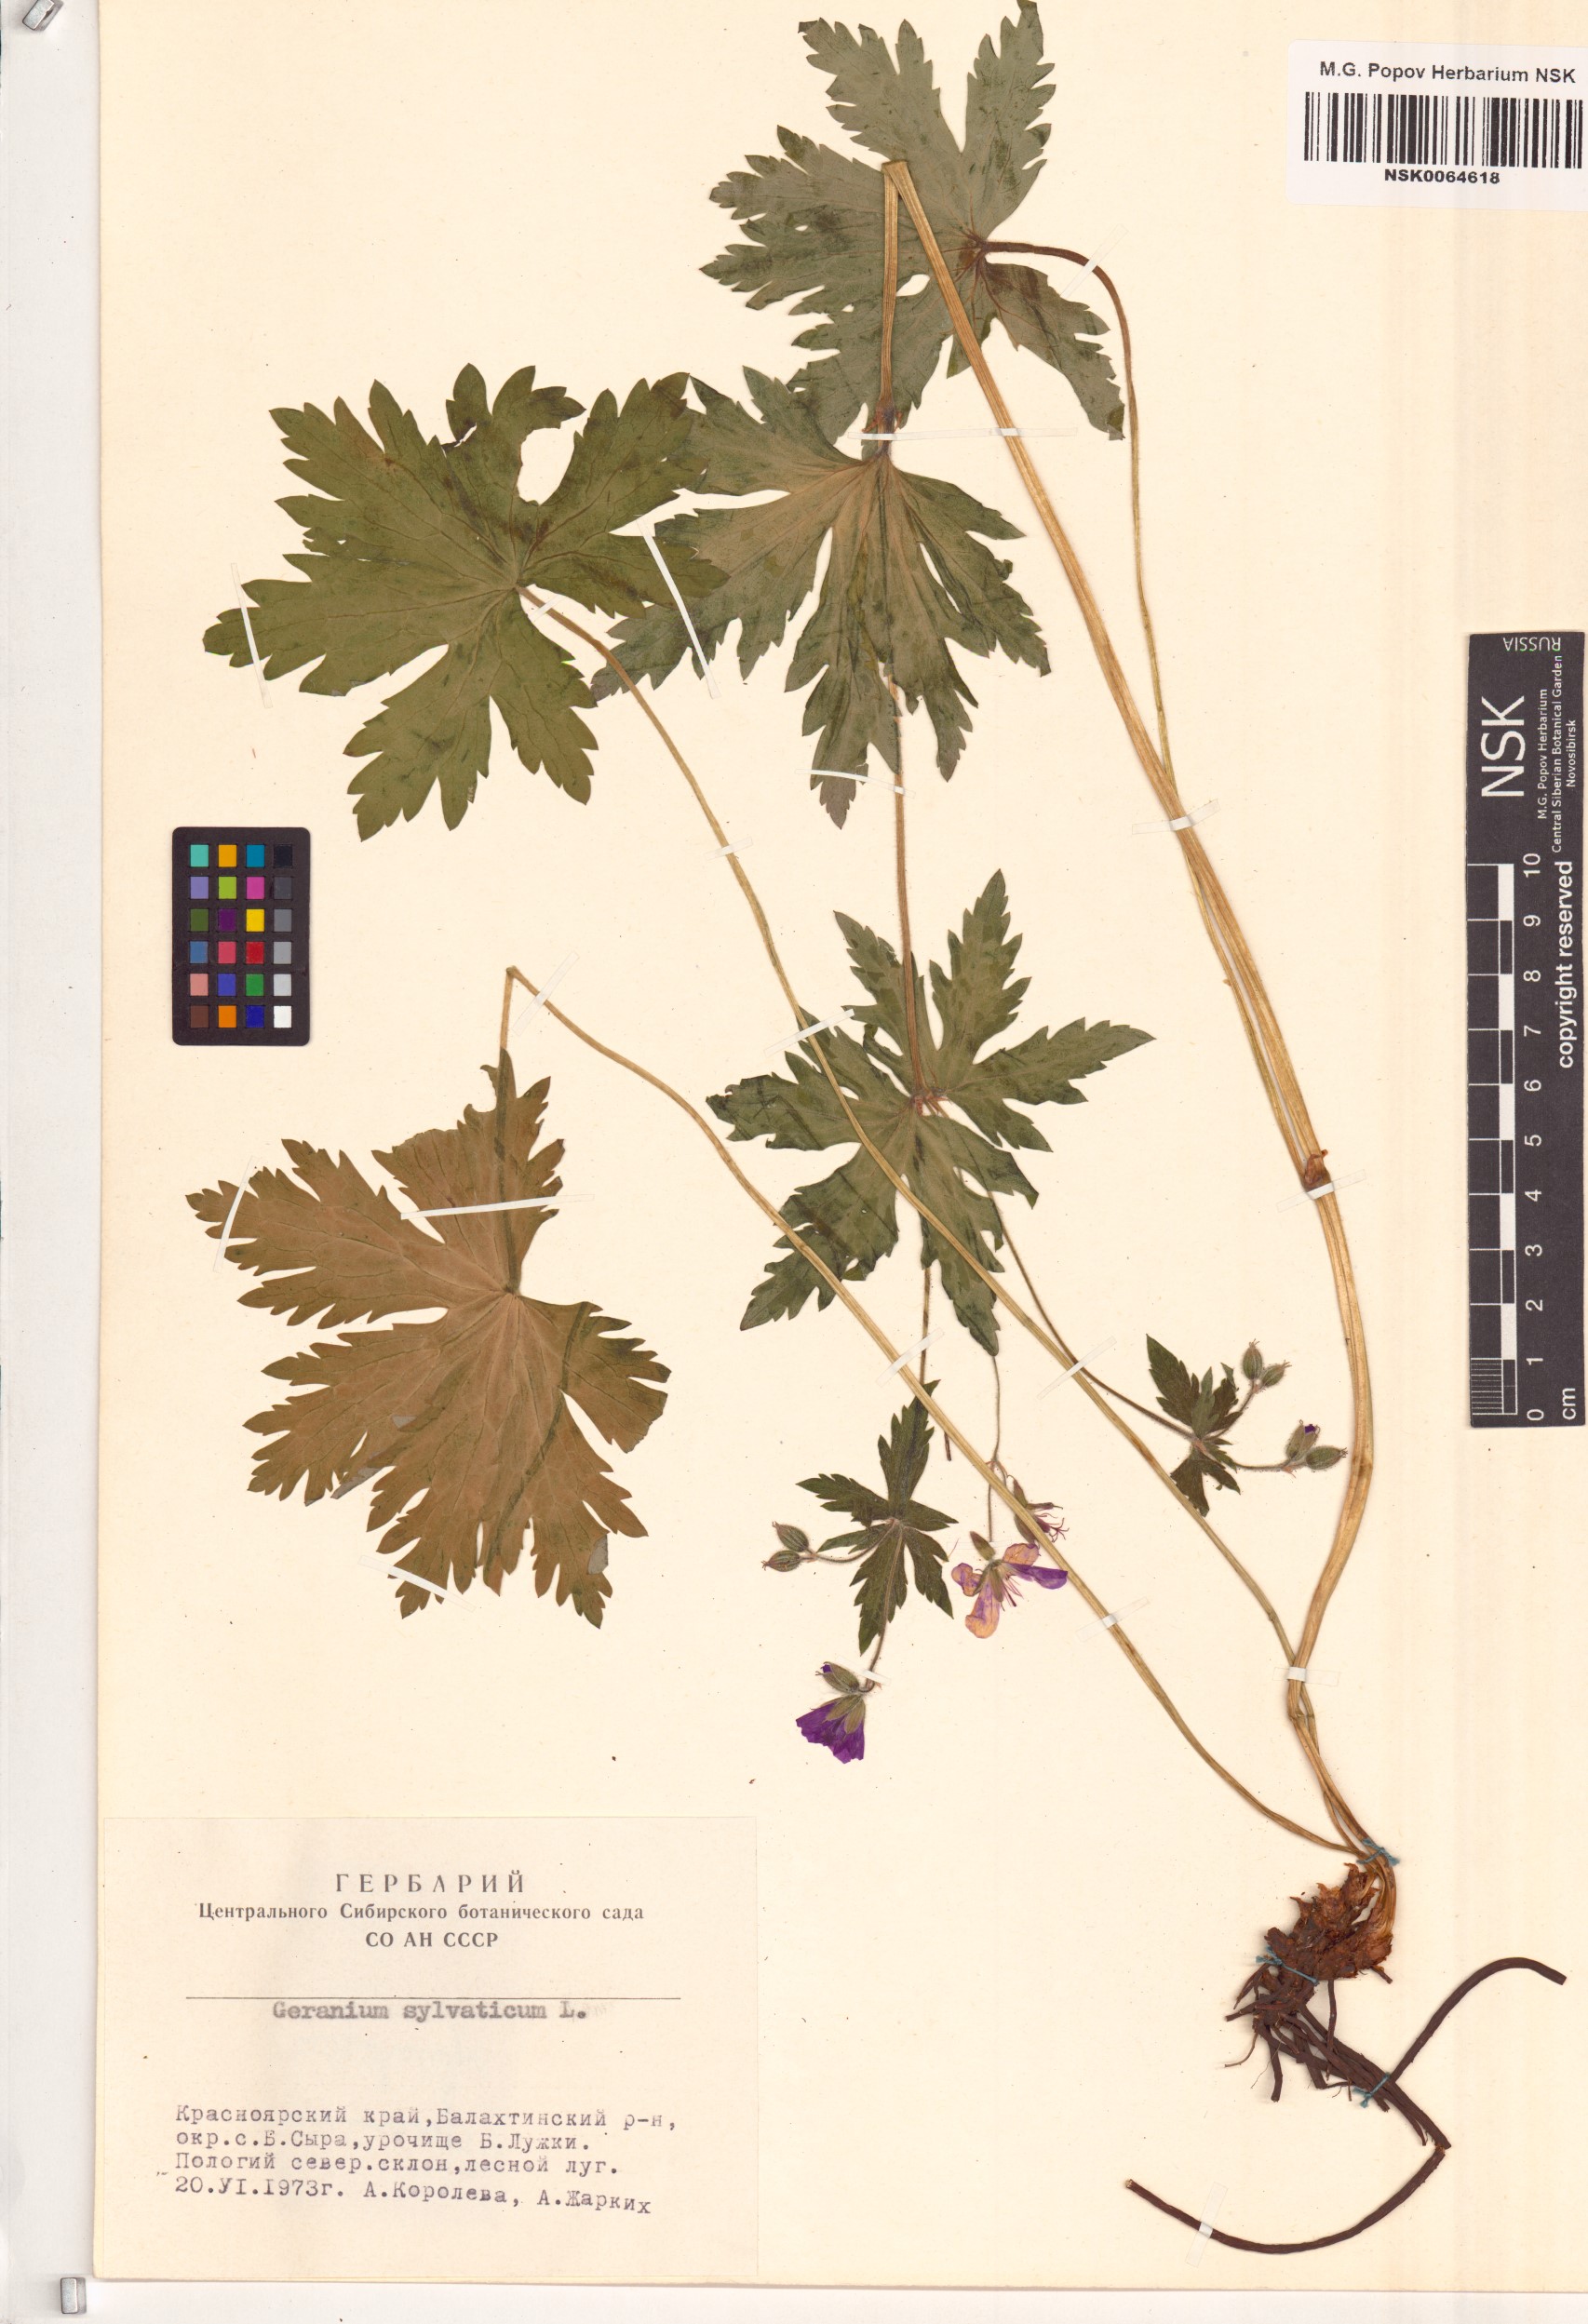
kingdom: Plantae
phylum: Tracheophyta
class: Magnoliopsida
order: Geraniales
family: Geraniaceae
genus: Geranium
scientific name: Geranium sylvaticum
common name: Wood crane's-bill
